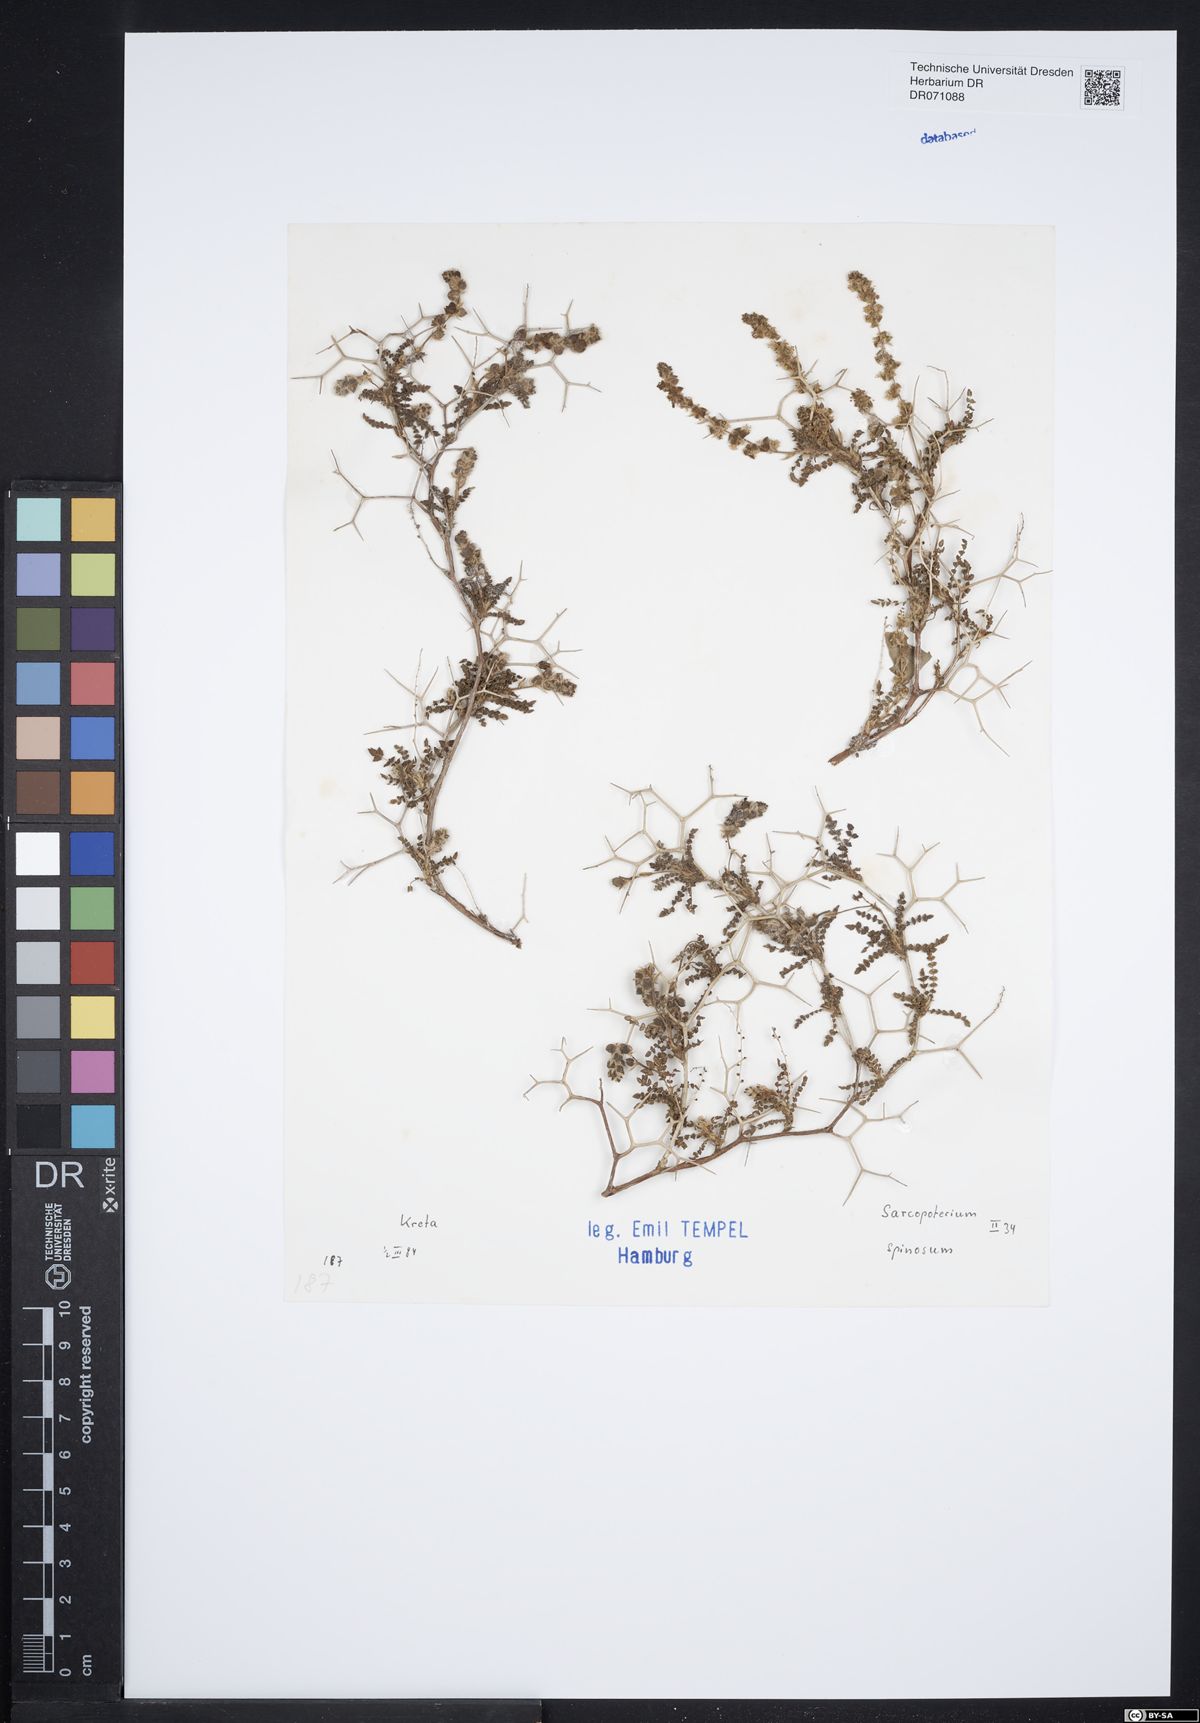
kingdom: Plantae
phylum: Tracheophyta
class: Magnoliopsida
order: Rosales
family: Rosaceae
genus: Sarcopoterium
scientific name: Sarcopoterium spinosum
